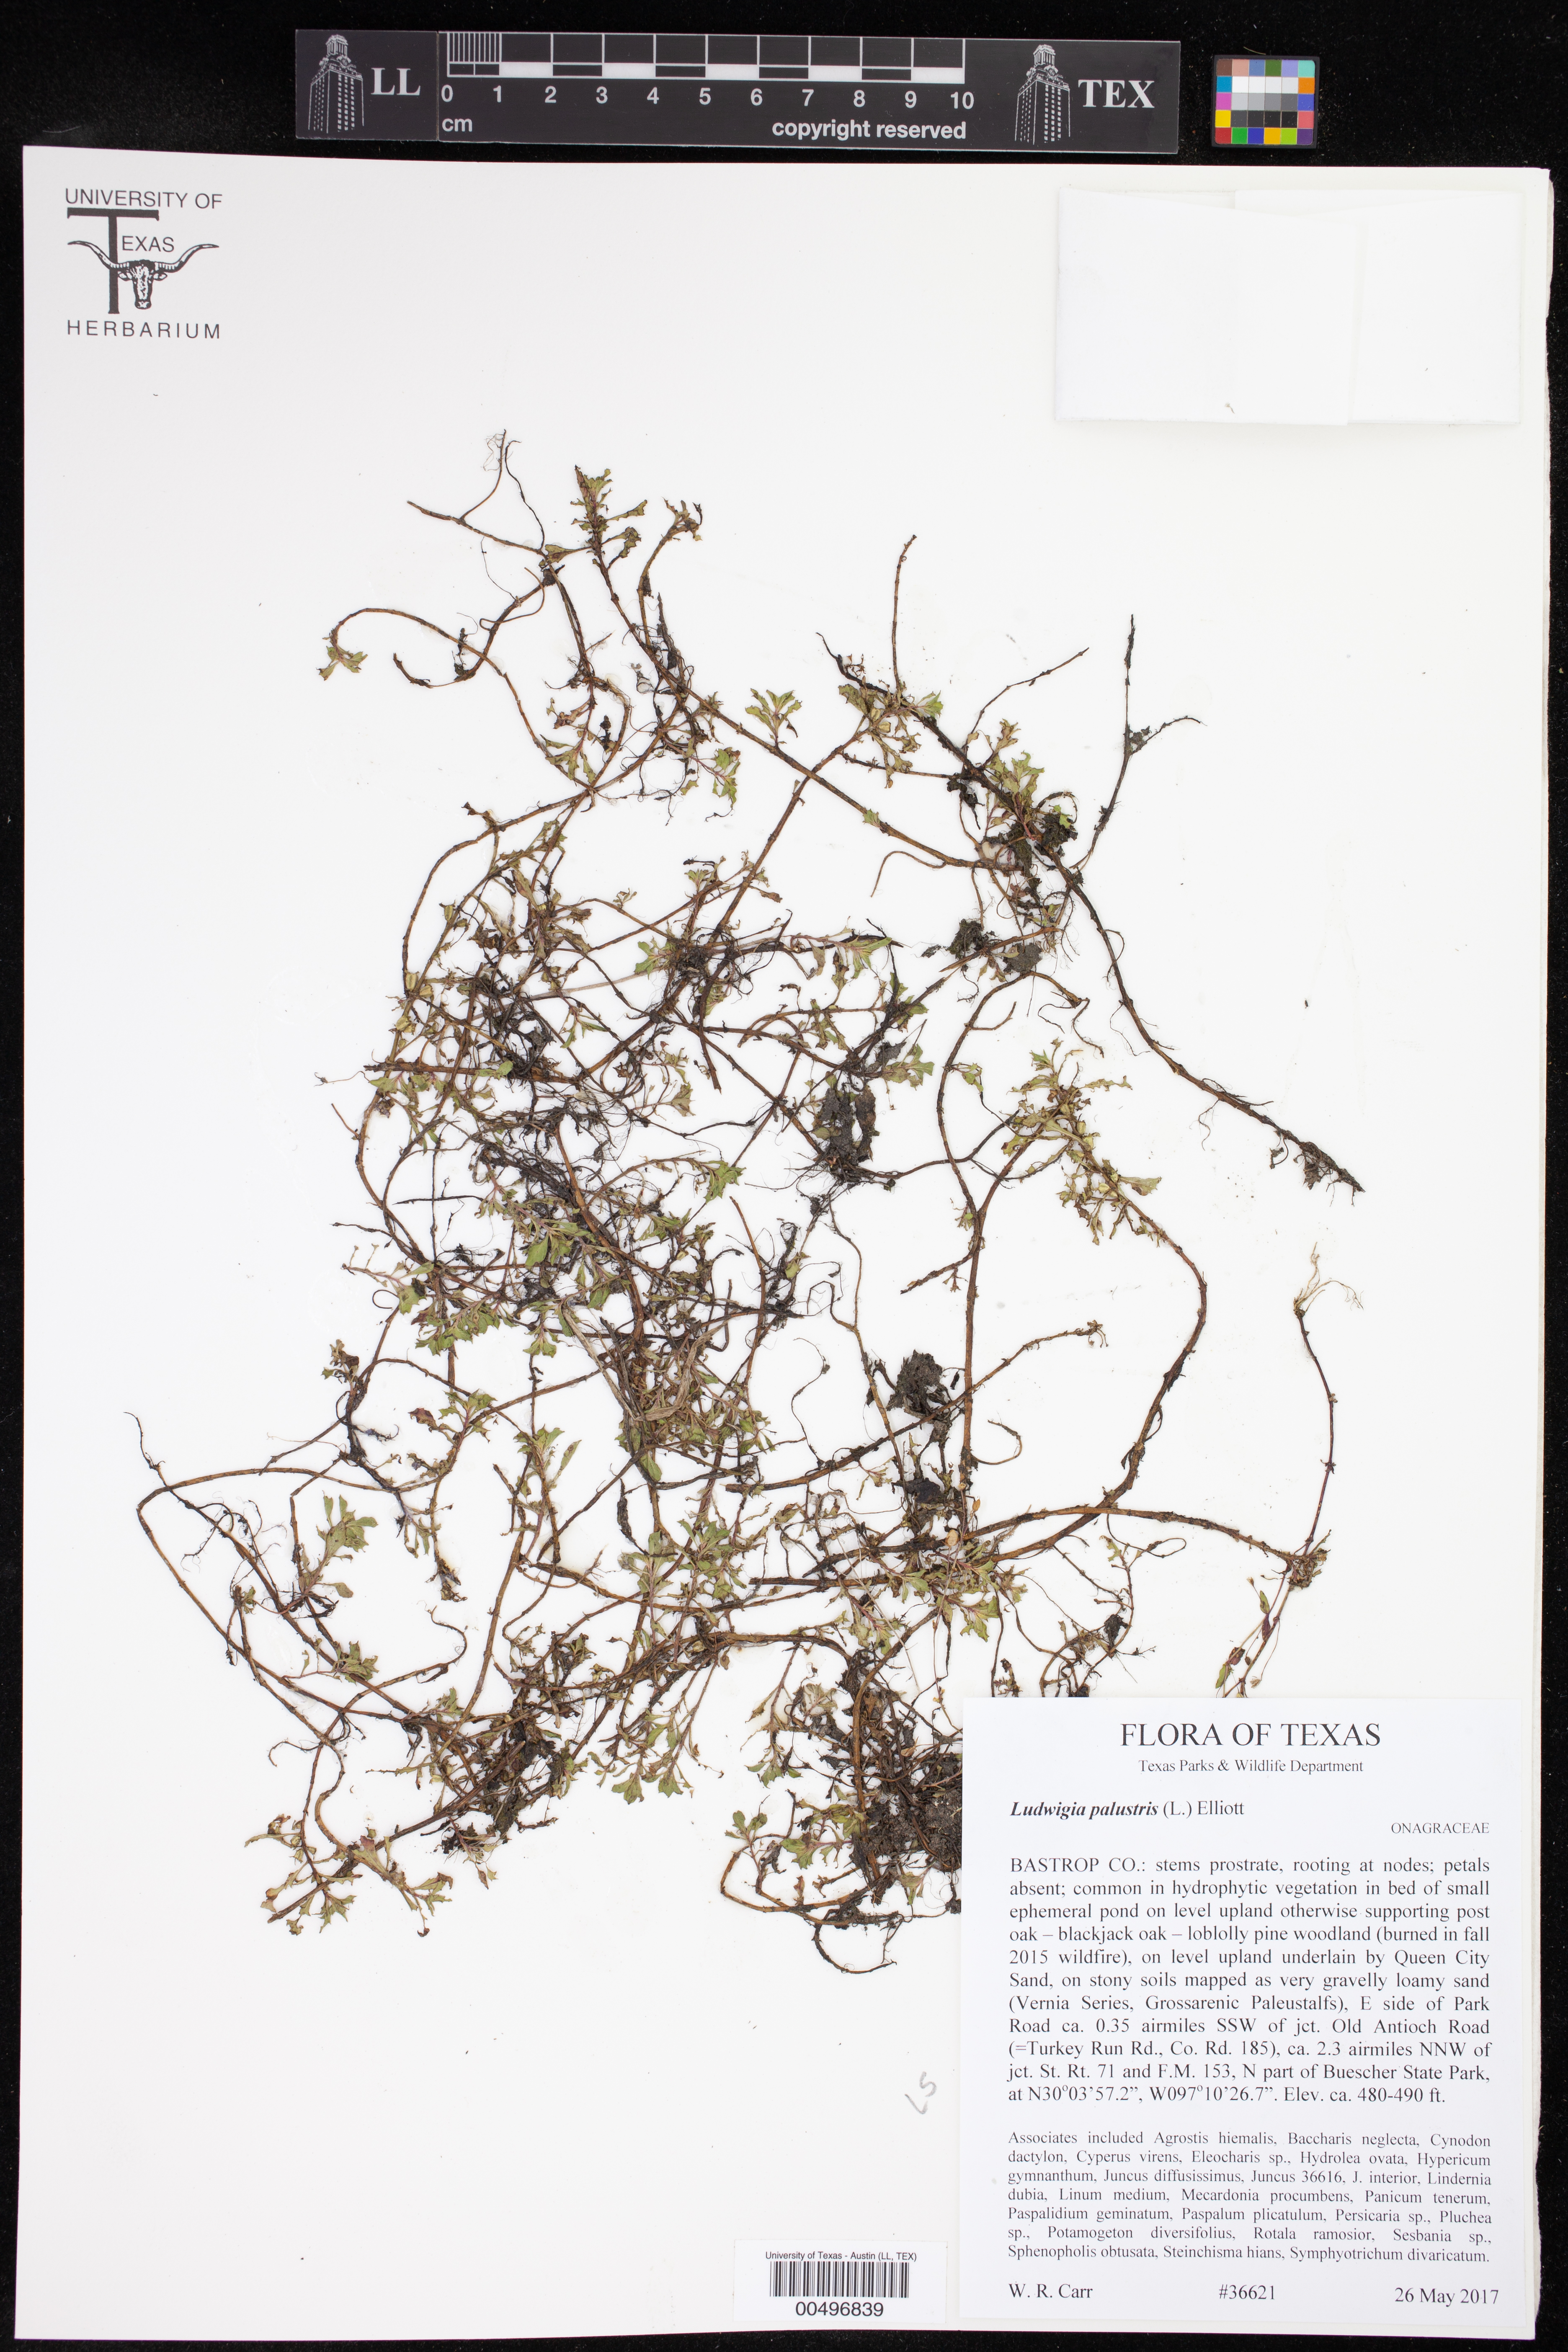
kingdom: Plantae
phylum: Tracheophyta
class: Magnoliopsida
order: Myrtales
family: Onagraceae
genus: Ludwigia
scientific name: Ludwigia palustris
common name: Hampshire-purslane
